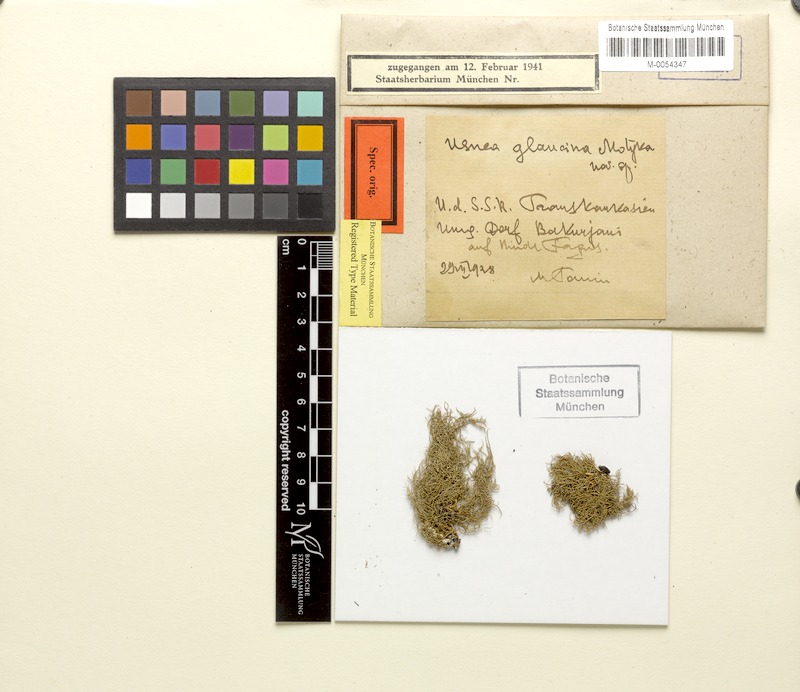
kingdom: Fungi
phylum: Ascomycota
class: Lecanoromycetes
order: Lecanorales
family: Parmeliaceae
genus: Usnea
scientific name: Usnea
